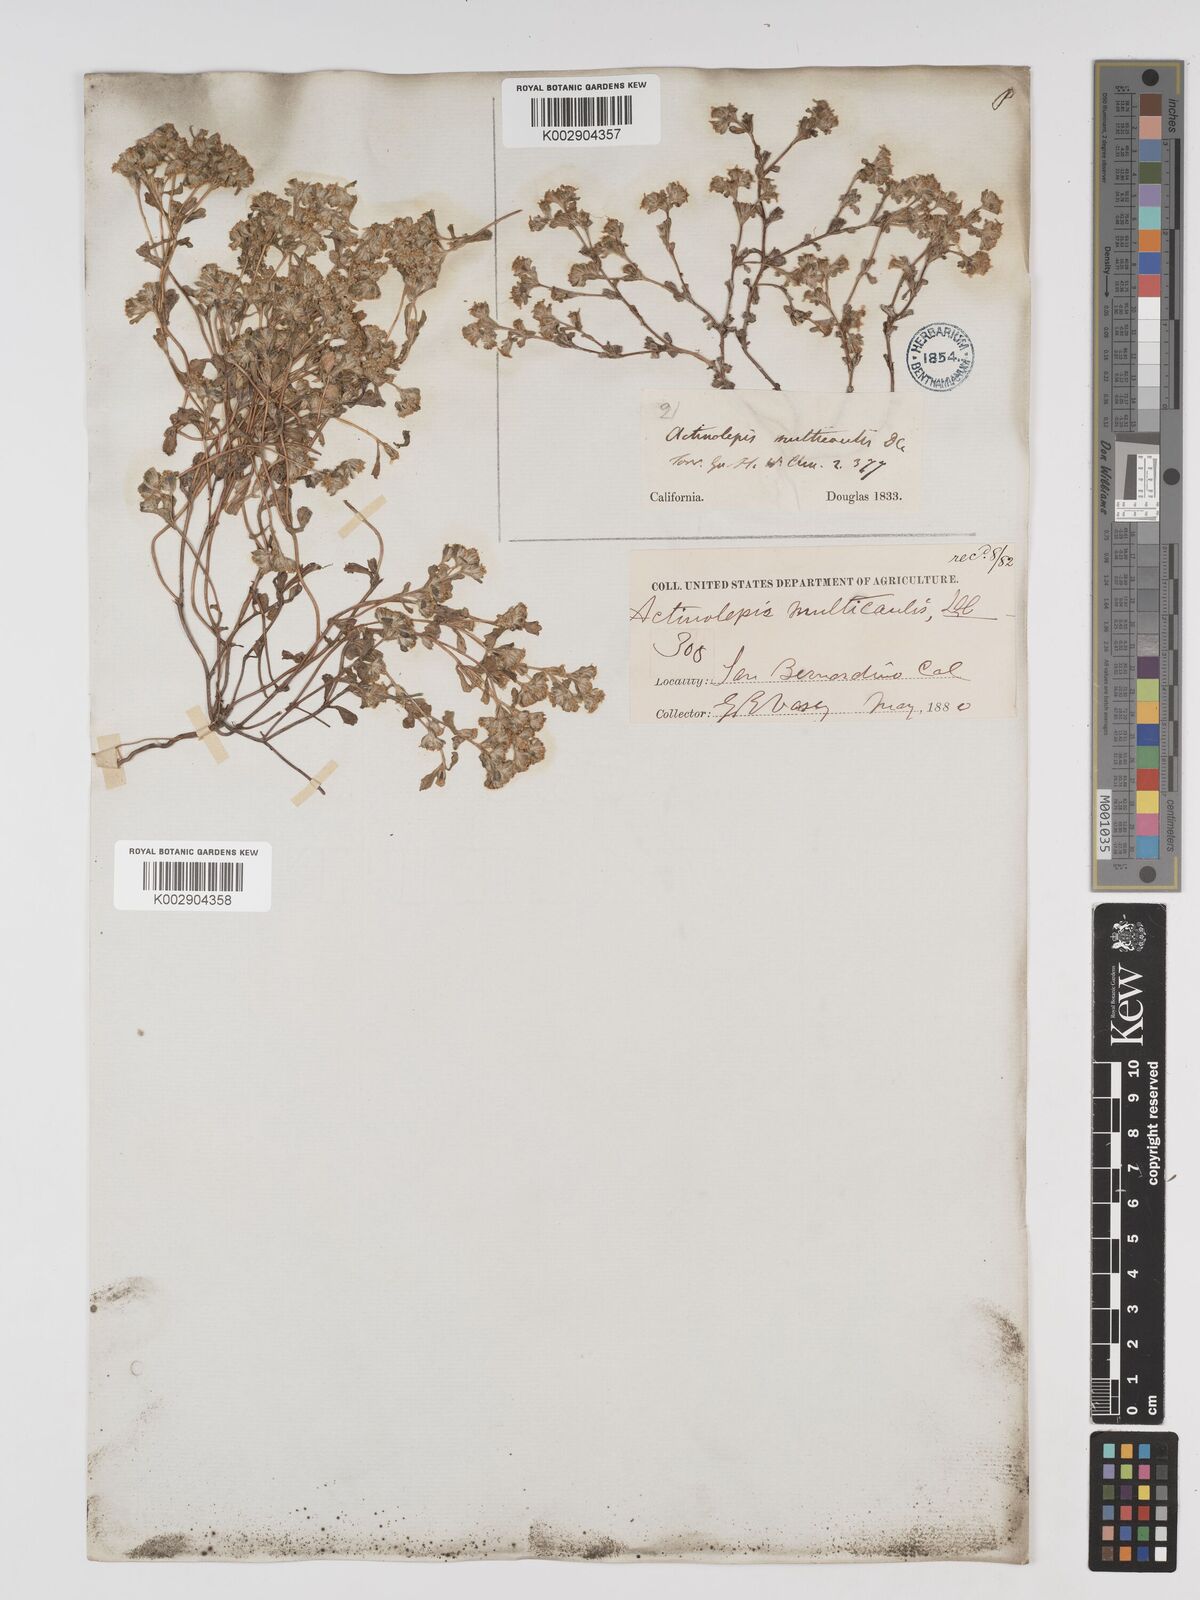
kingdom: Plantae
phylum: Tracheophyta
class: Magnoliopsida
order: Asterales
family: Asteraceae
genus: Eriophyllum
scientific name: Eriophyllum multicaule
